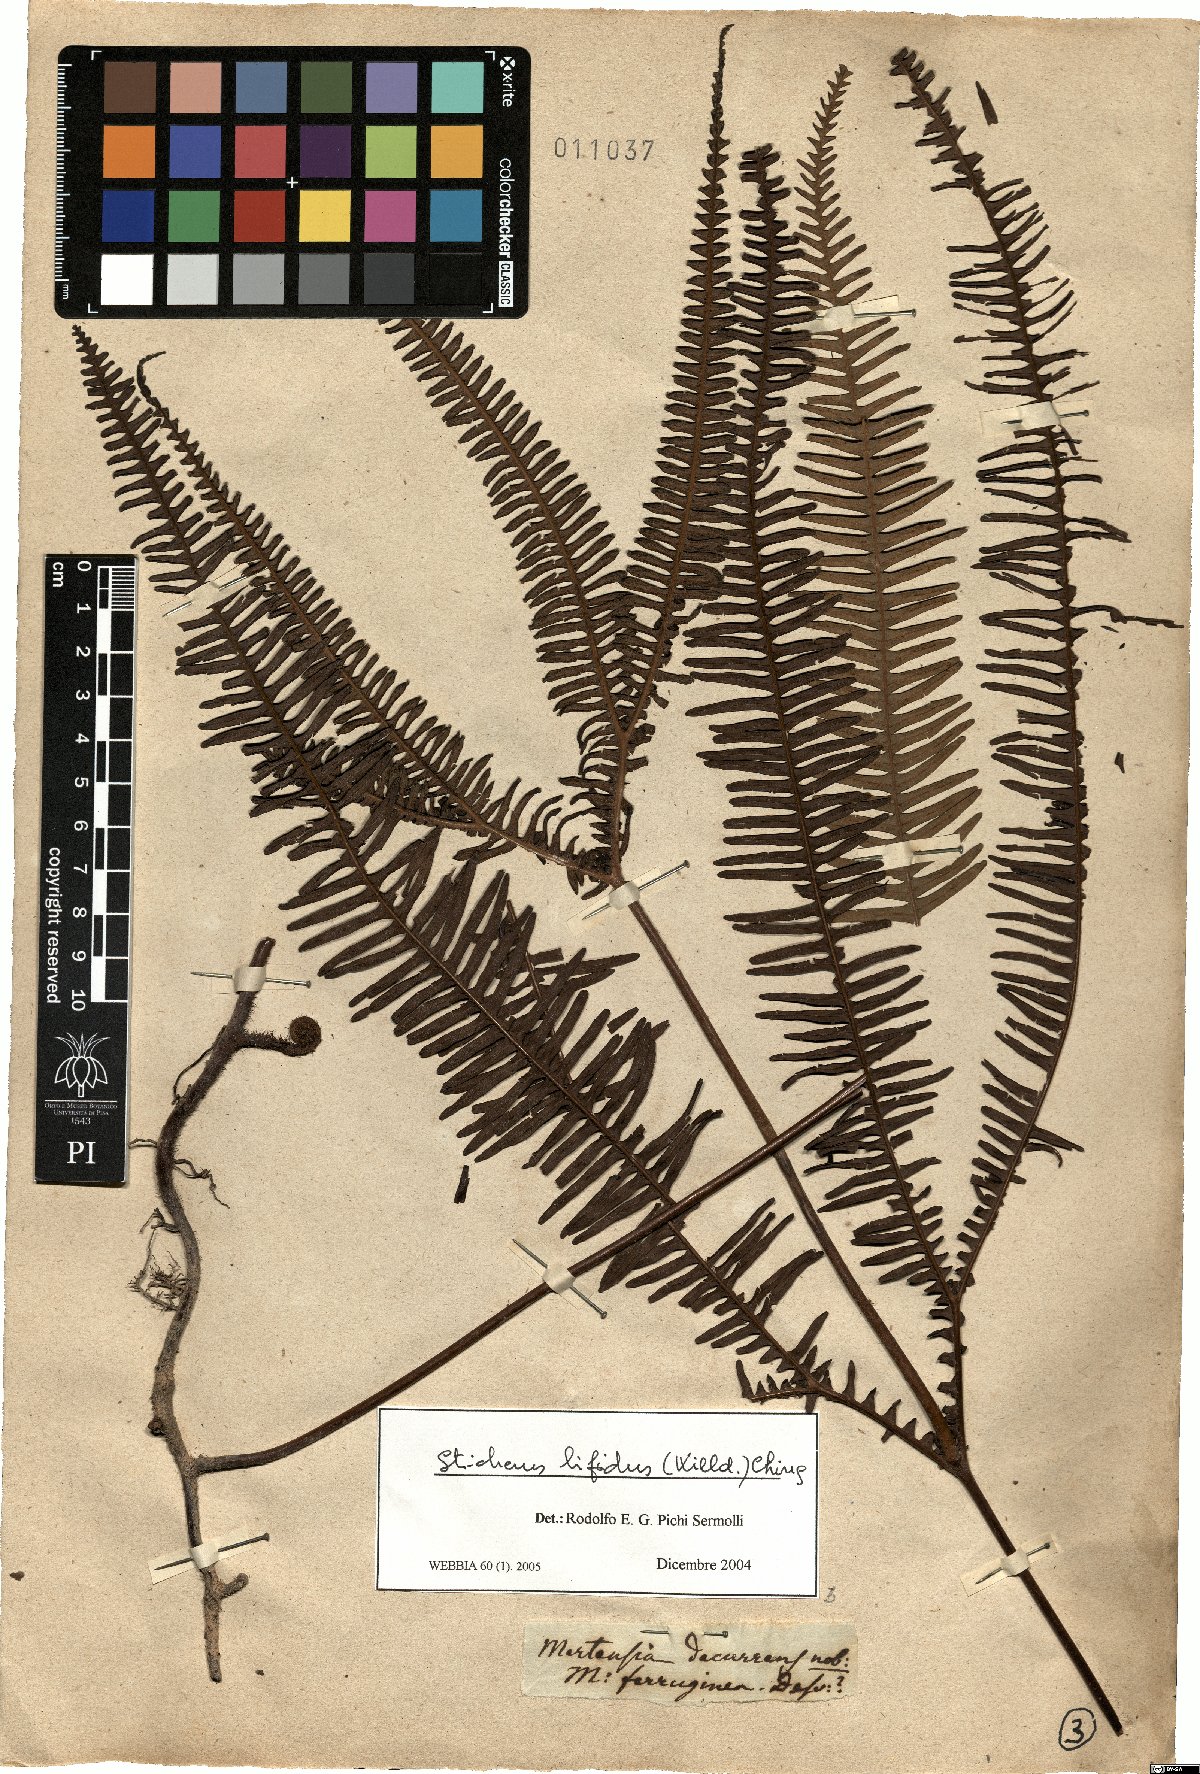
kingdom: Plantae
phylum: Tracheophyta
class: Polypodiopsida
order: Gleicheniales
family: Gleicheniaceae
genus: Sticherus
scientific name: Sticherus bifidus
